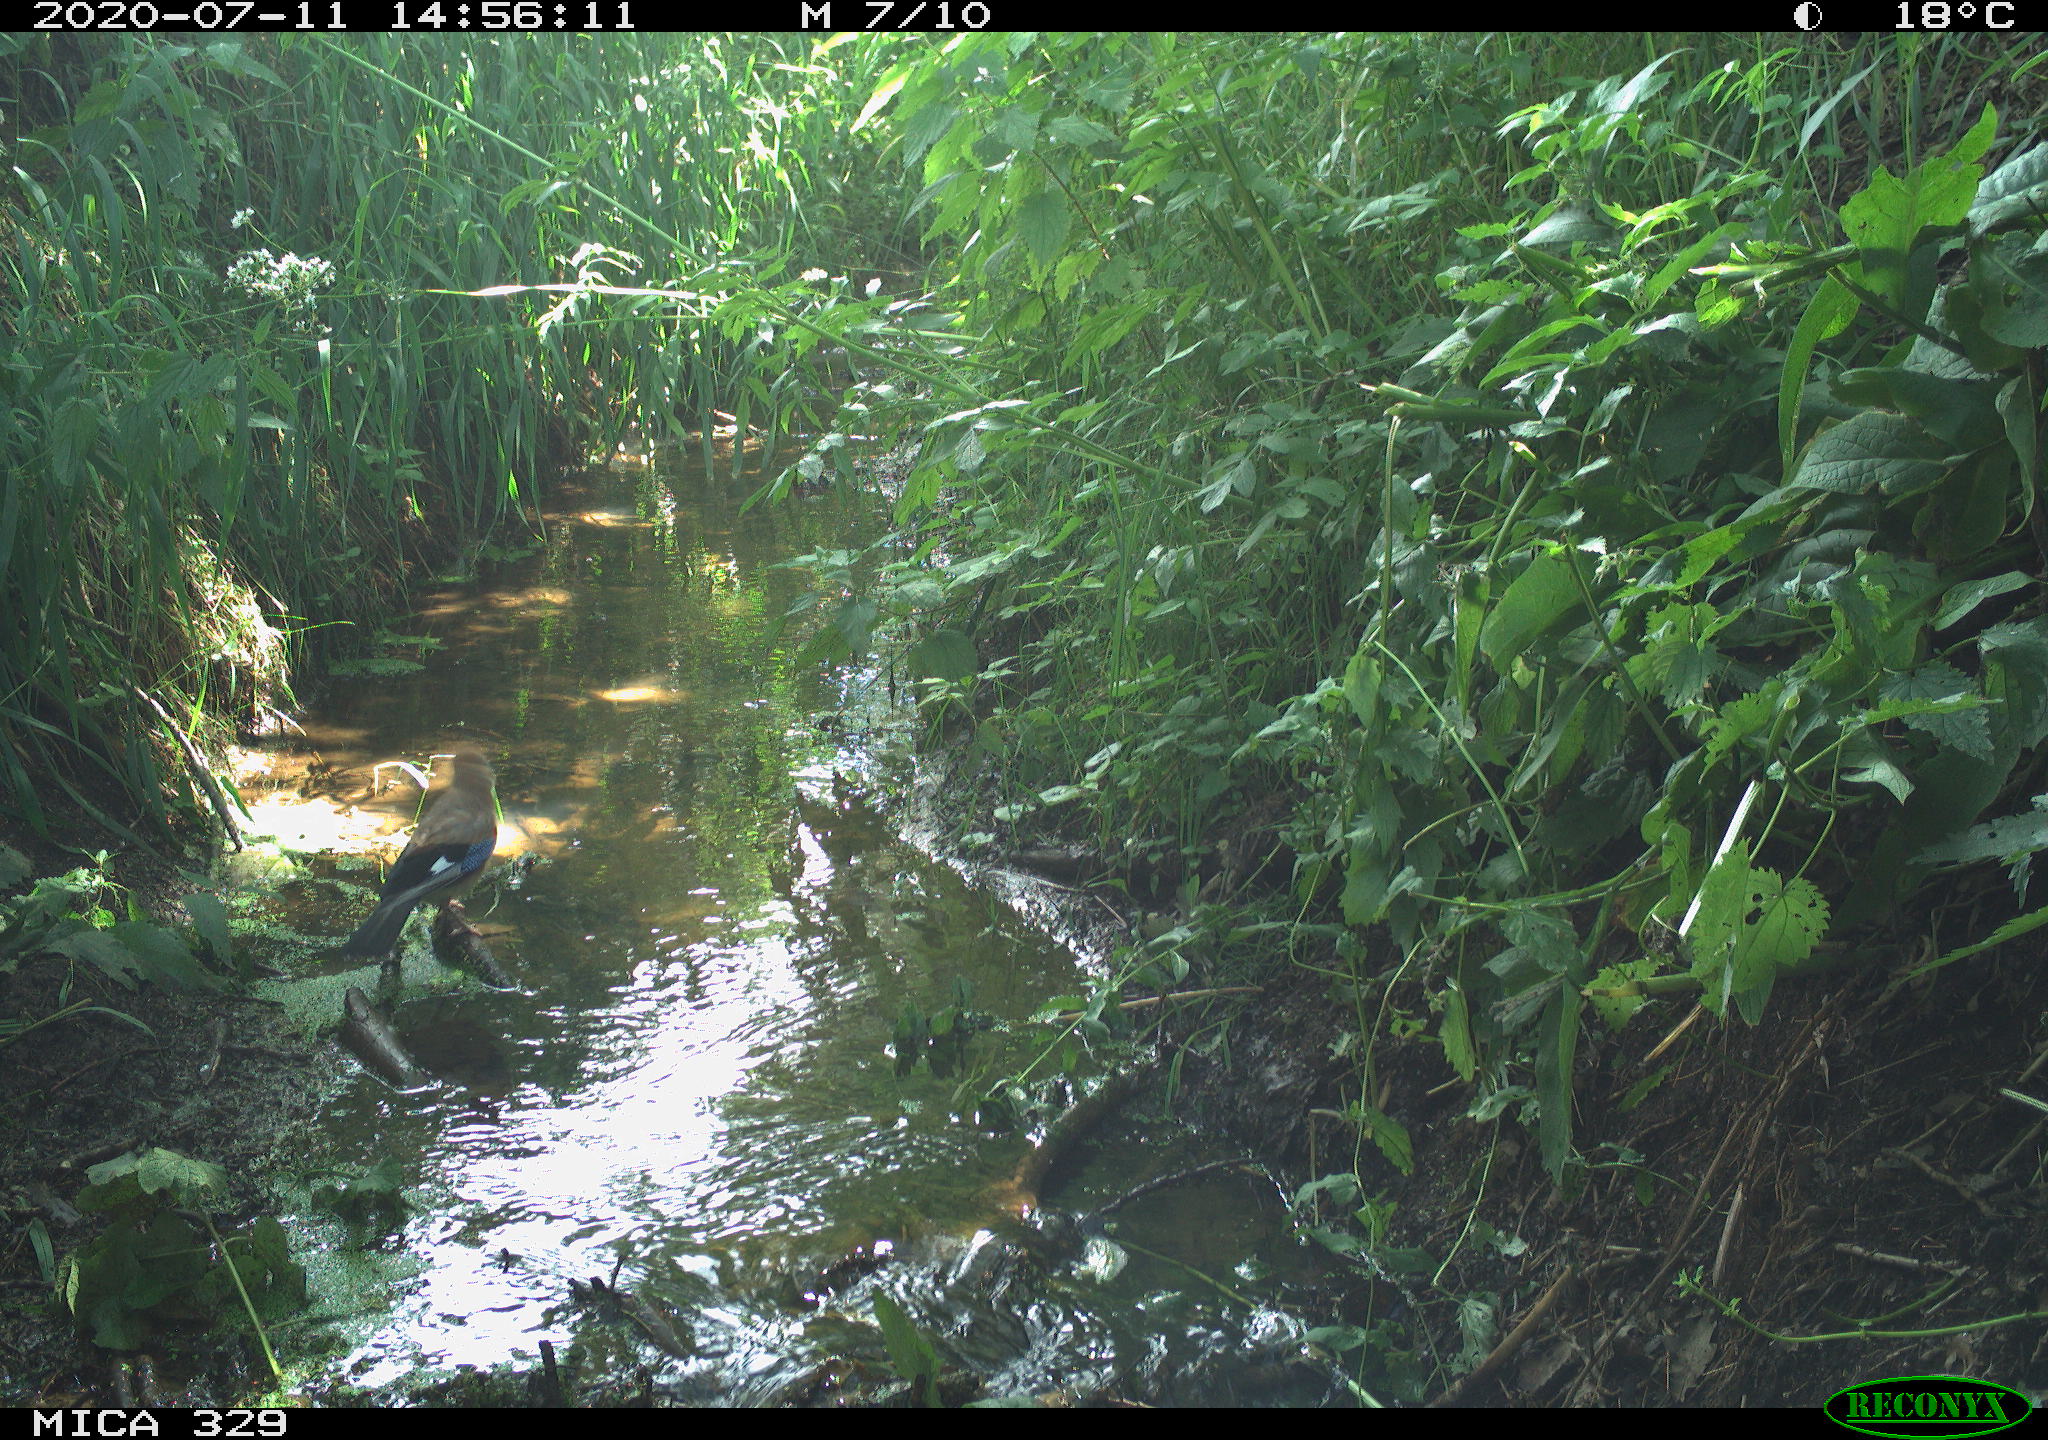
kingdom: Animalia
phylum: Chordata
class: Aves
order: Passeriformes
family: Corvidae
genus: Garrulus
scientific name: Garrulus glandarius
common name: Eurasian jay
